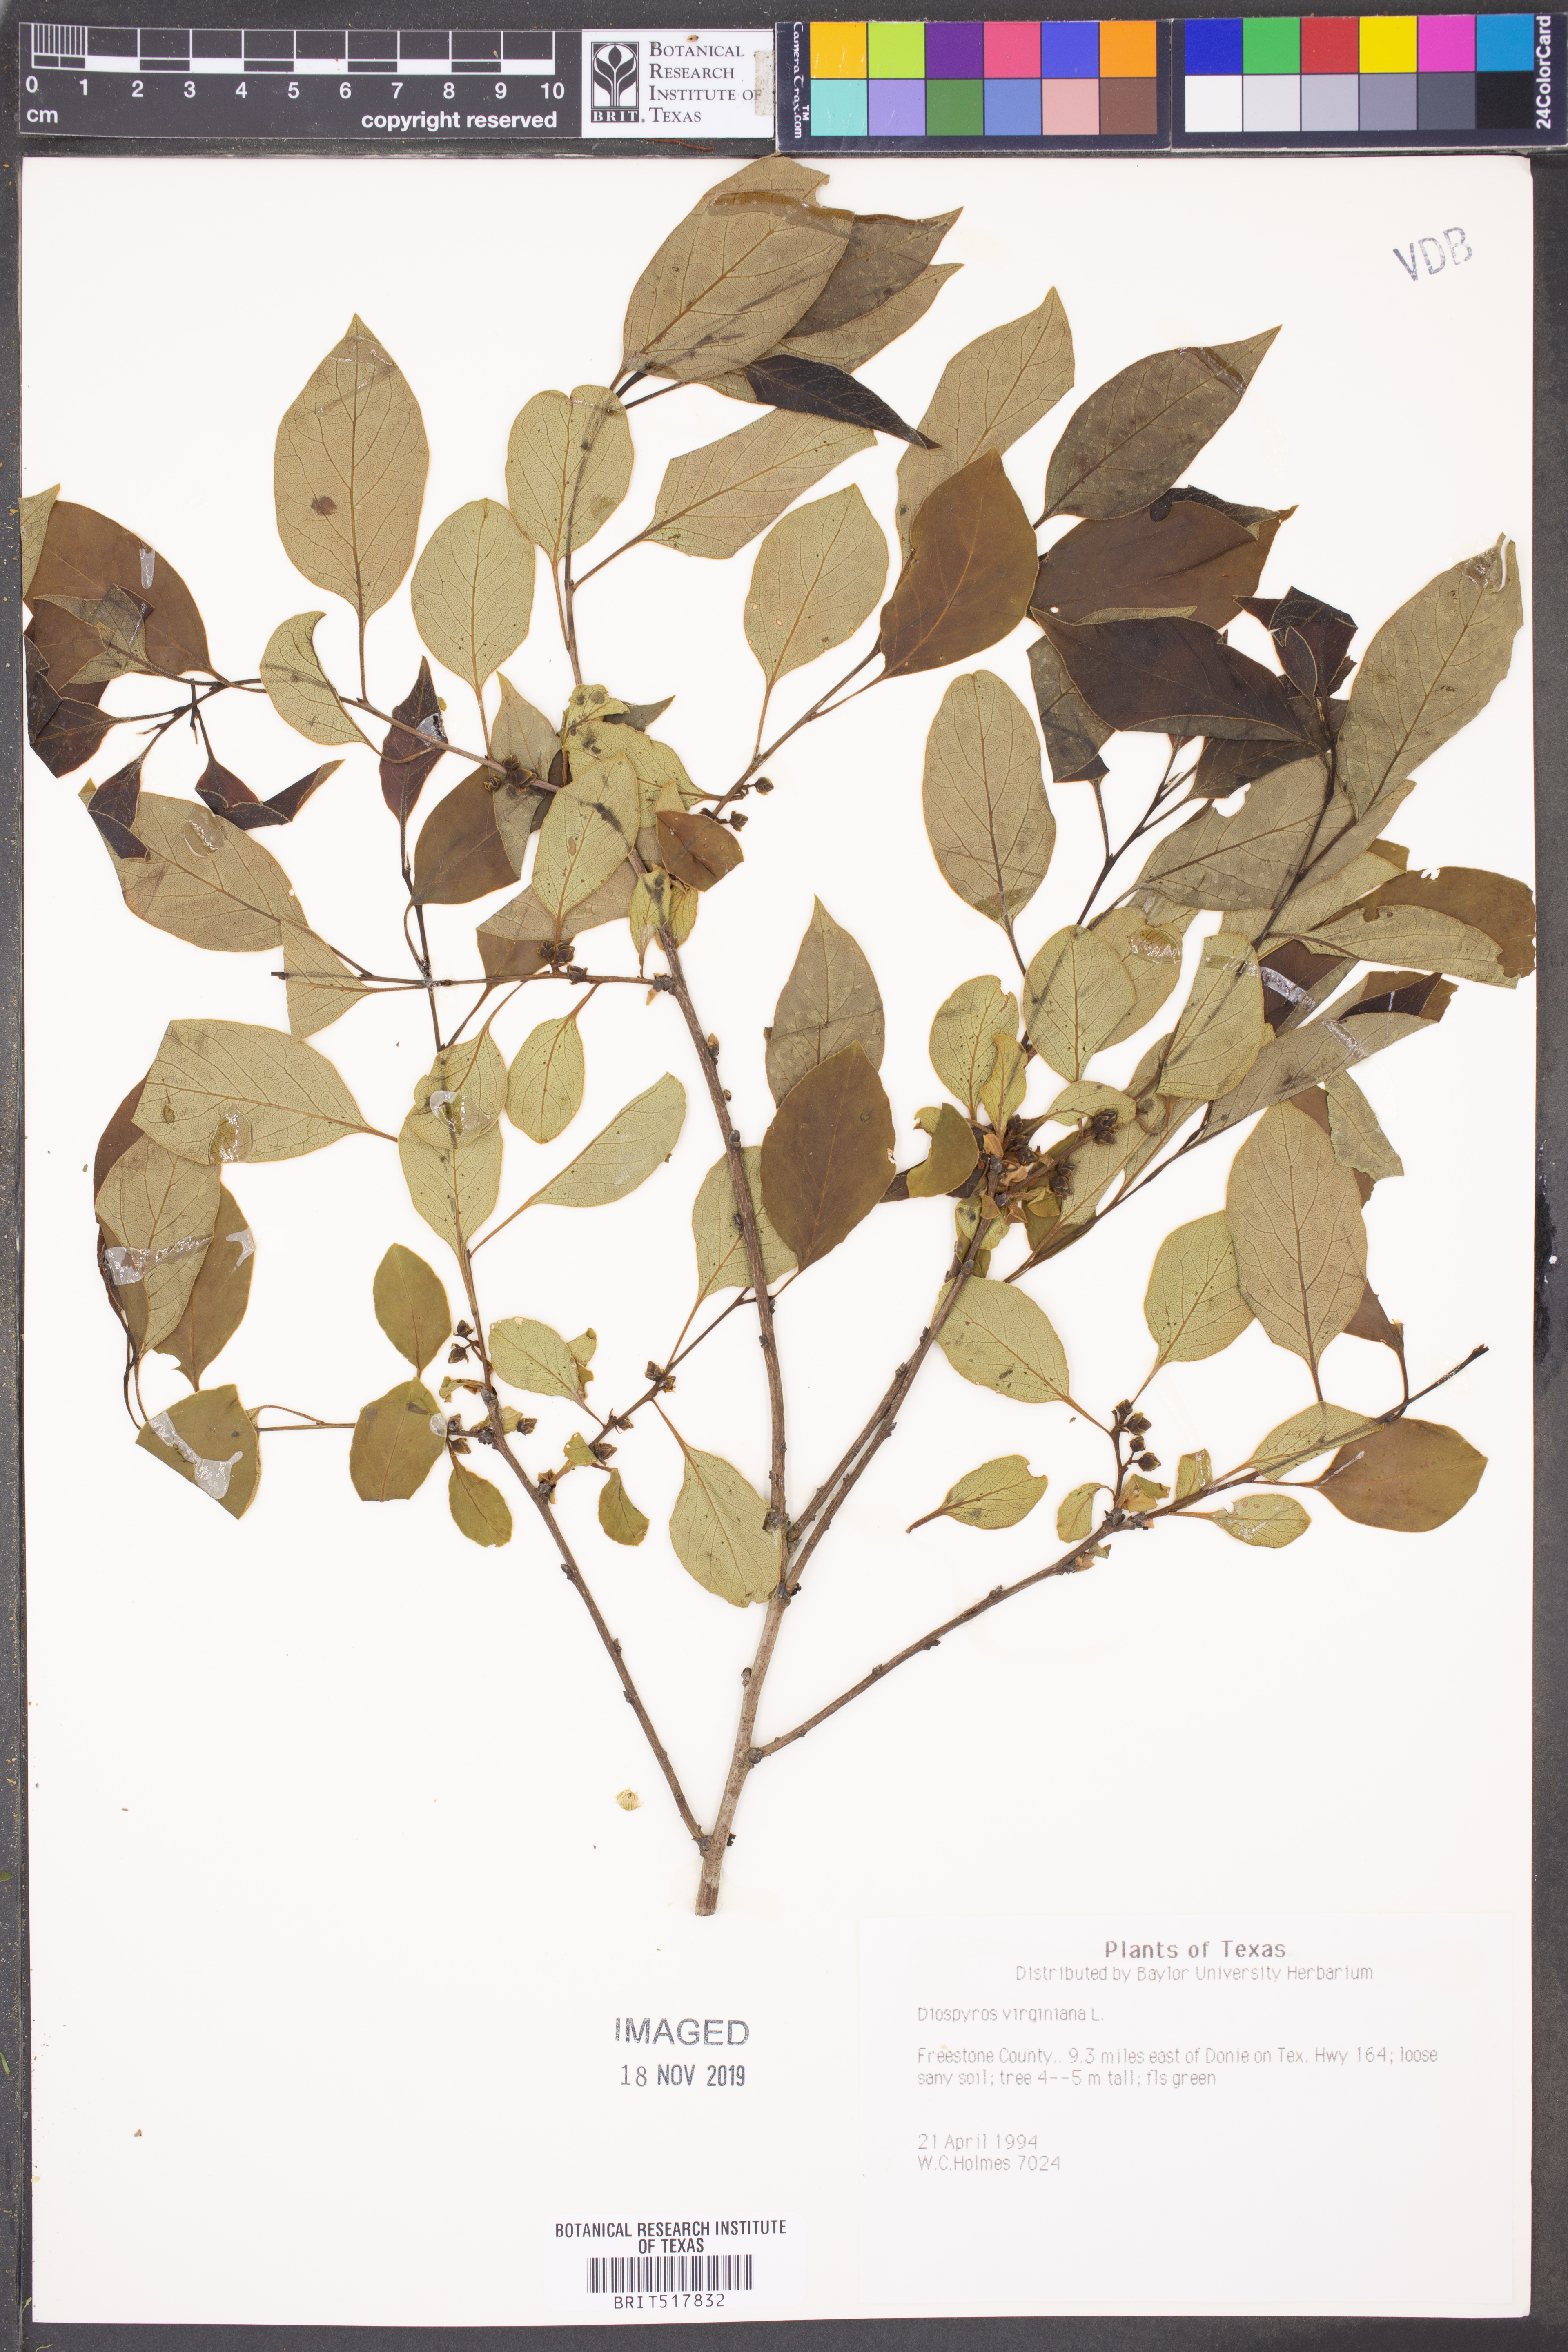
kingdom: Plantae
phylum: Tracheophyta
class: Magnoliopsida
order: Ericales
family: Ebenaceae
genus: Diospyros
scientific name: Diospyros virginiana
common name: Persimmon
